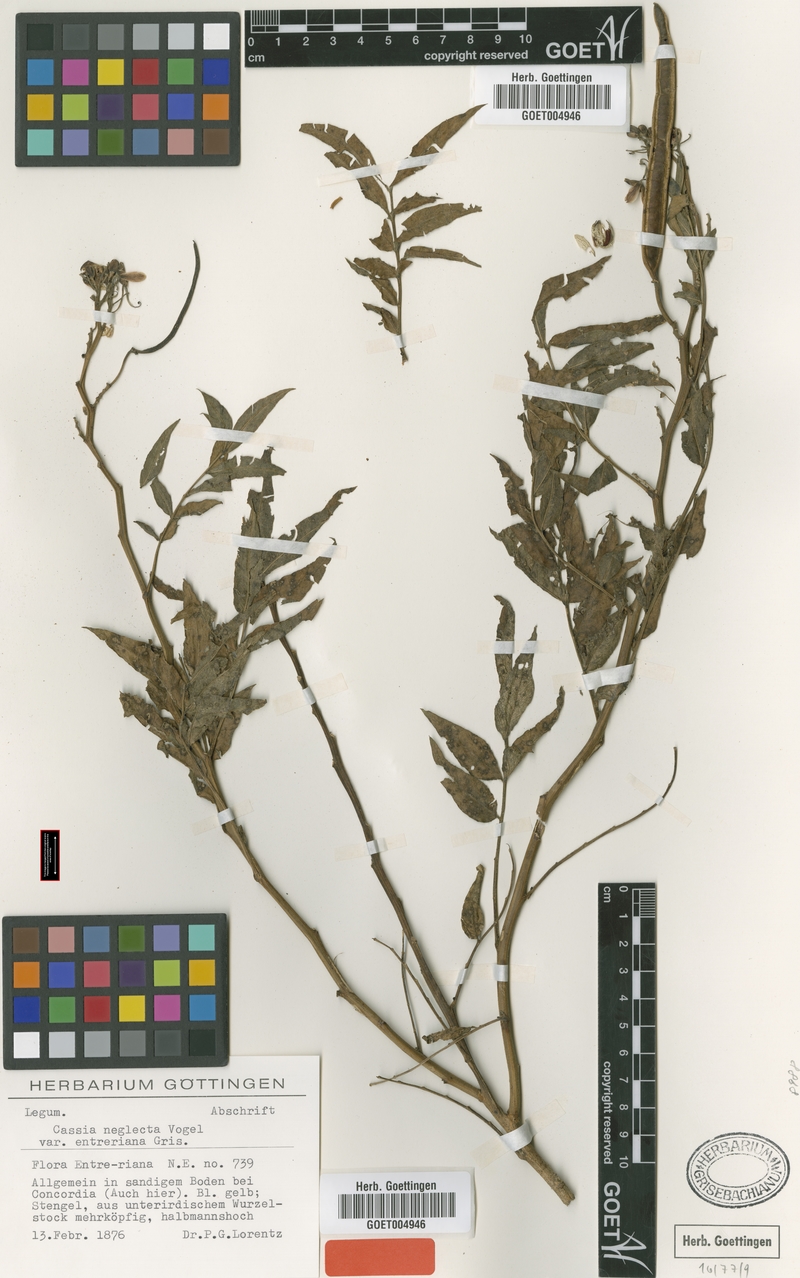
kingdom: Plantae
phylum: Tracheophyta
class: Magnoliopsida
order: Fabales
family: Fabaceae
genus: Senna
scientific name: Senna scabriuscula
